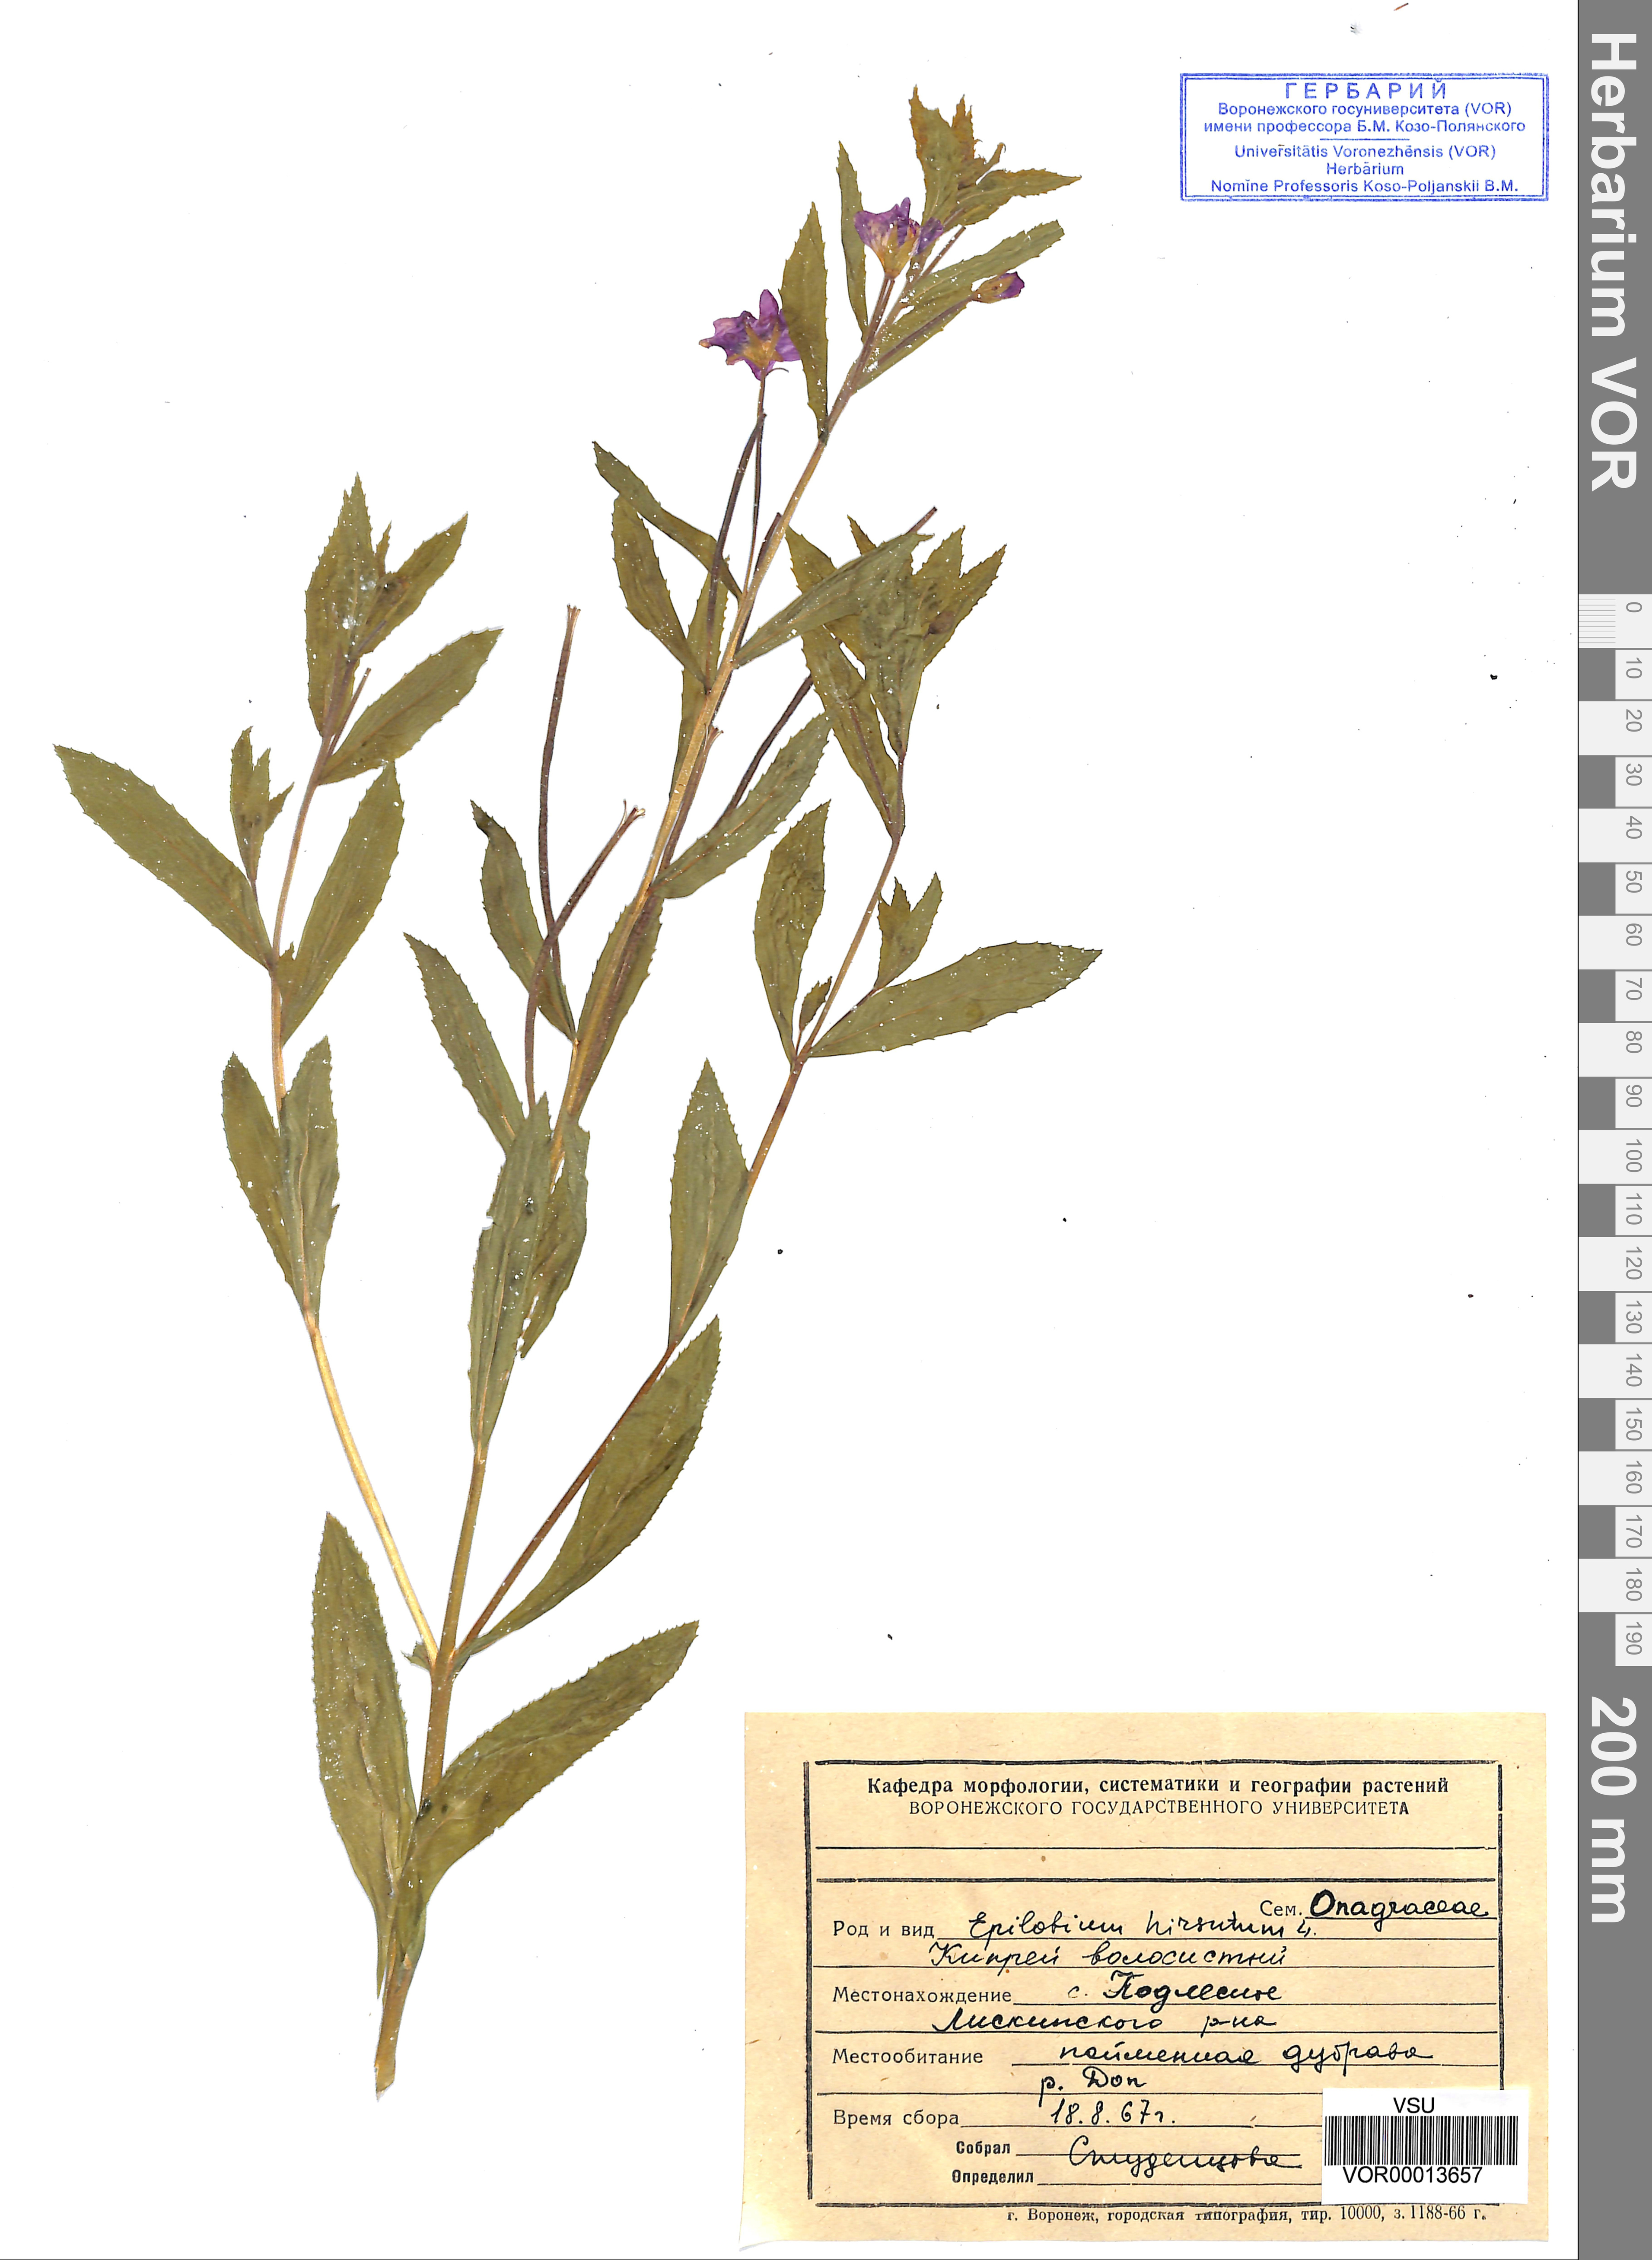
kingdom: Plantae
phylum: Tracheophyta
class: Magnoliopsida
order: Myrtales
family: Onagraceae
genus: Epilobium
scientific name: Epilobium hirsutum
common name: Great willowherb
